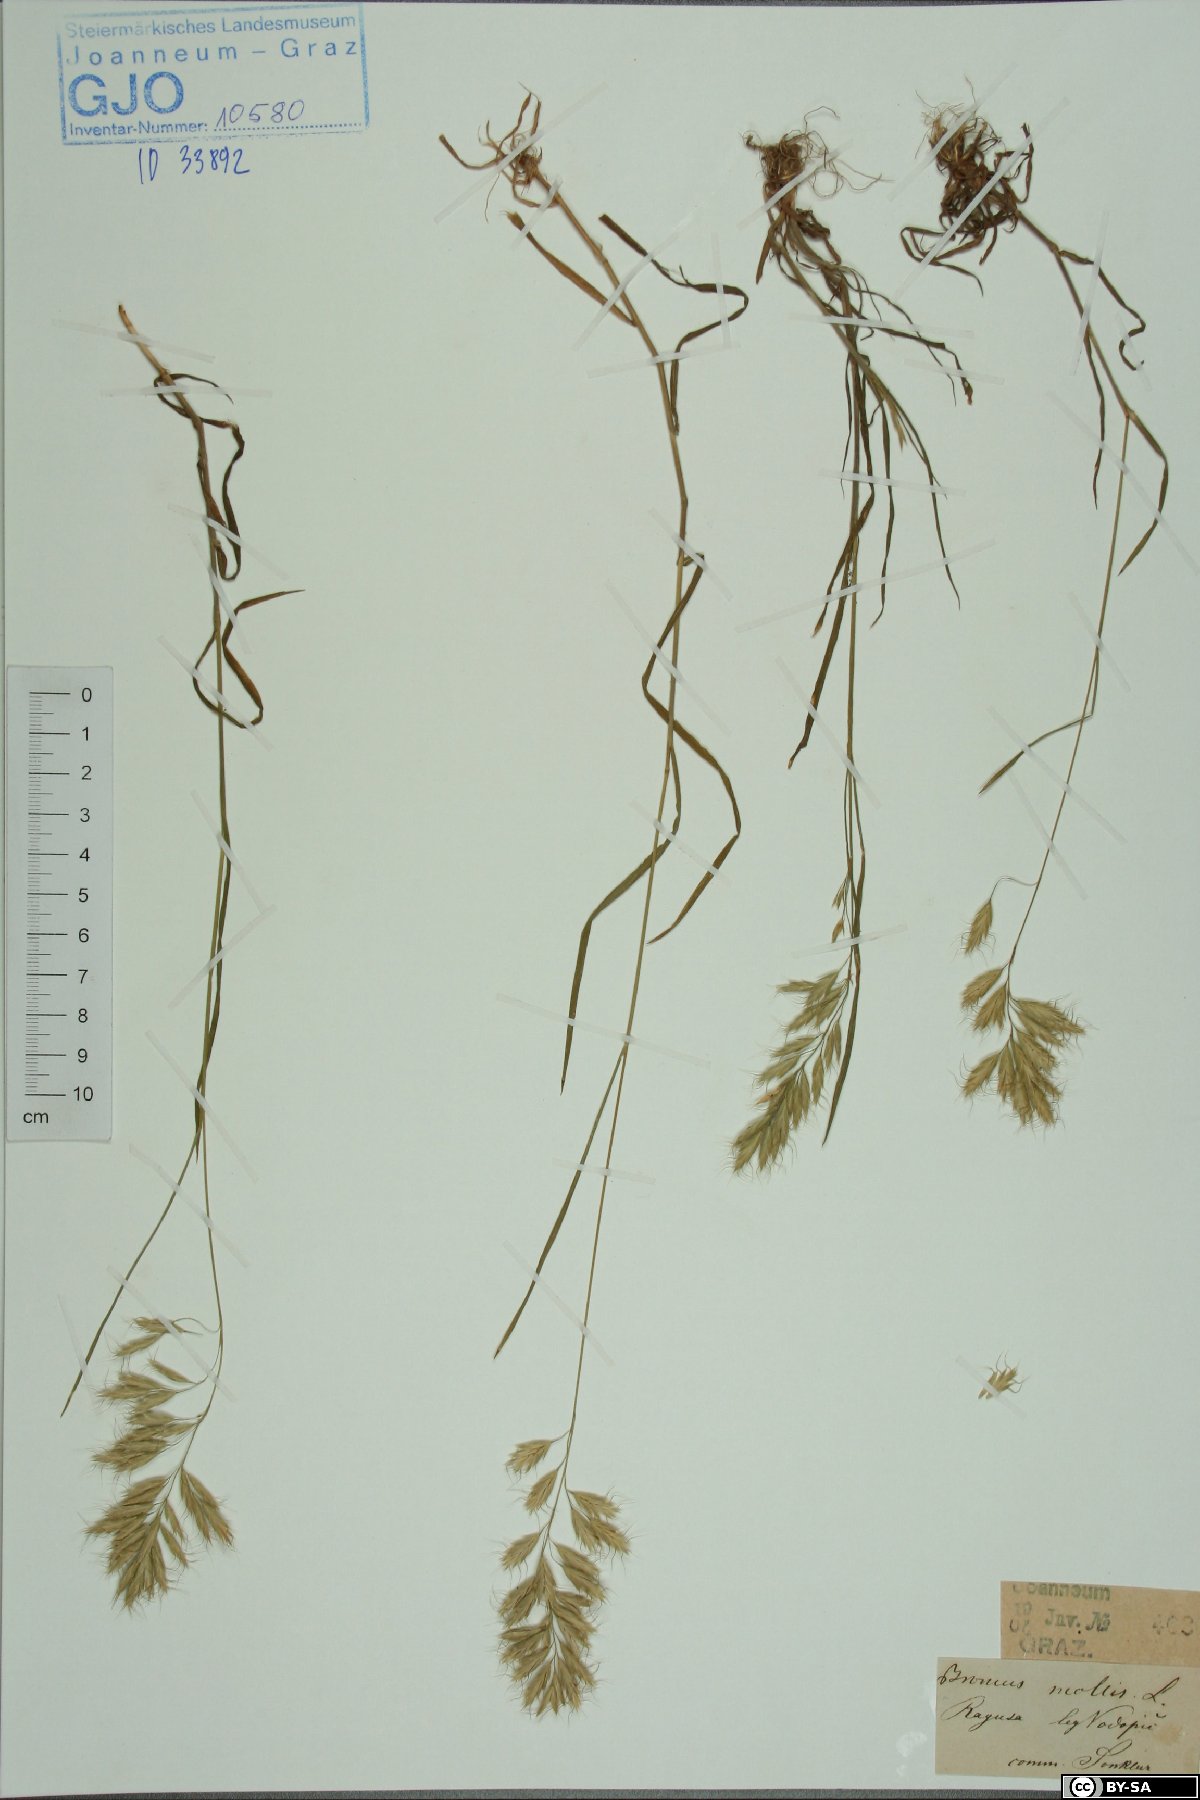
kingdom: Plantae
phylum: Tracheophyta
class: Liliopsida
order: Poales
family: Poaceae
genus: Bromus
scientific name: Bromus hordeaceus
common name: Soft brome
